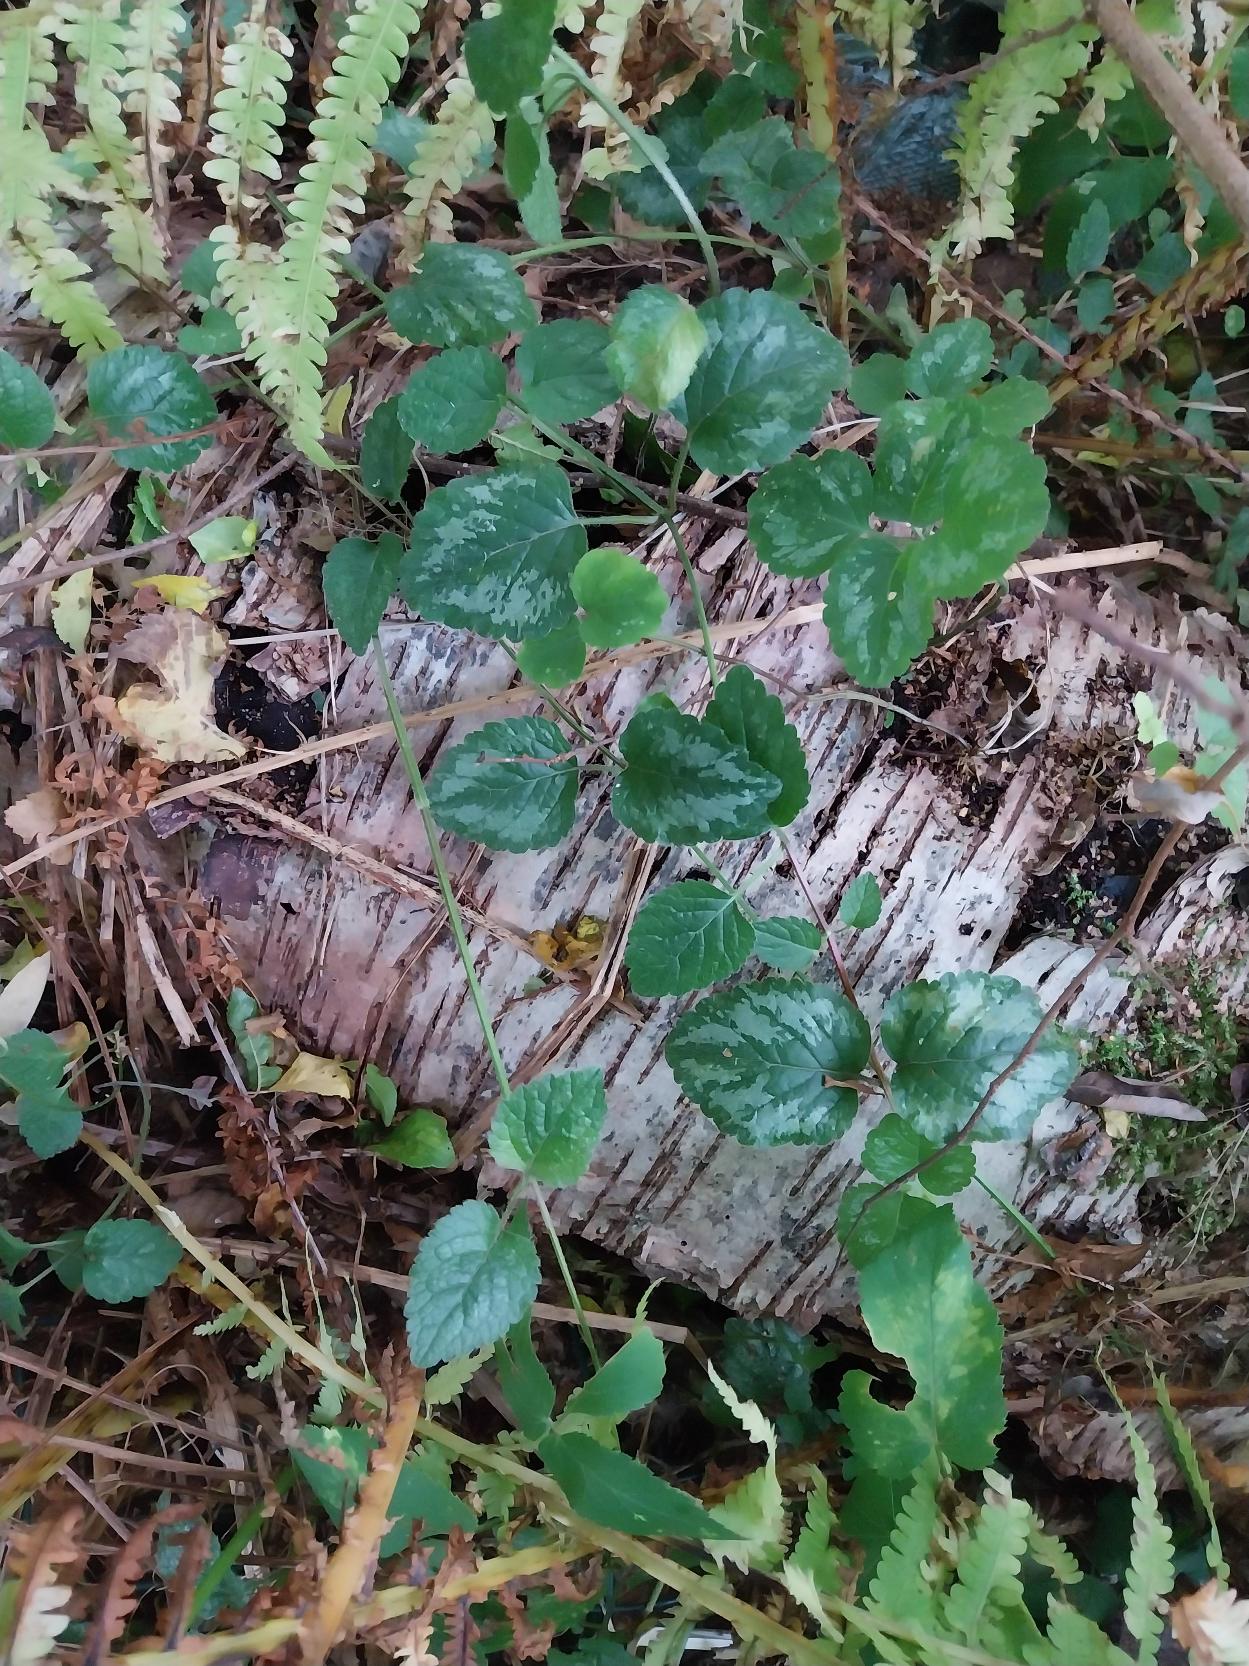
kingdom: Plantae
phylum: Tracheophyta
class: Magnoliopsida
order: Lamiales
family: Lamiaceae
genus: Lamium
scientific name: Lamium galeobdolon
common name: Have-guldnælde
